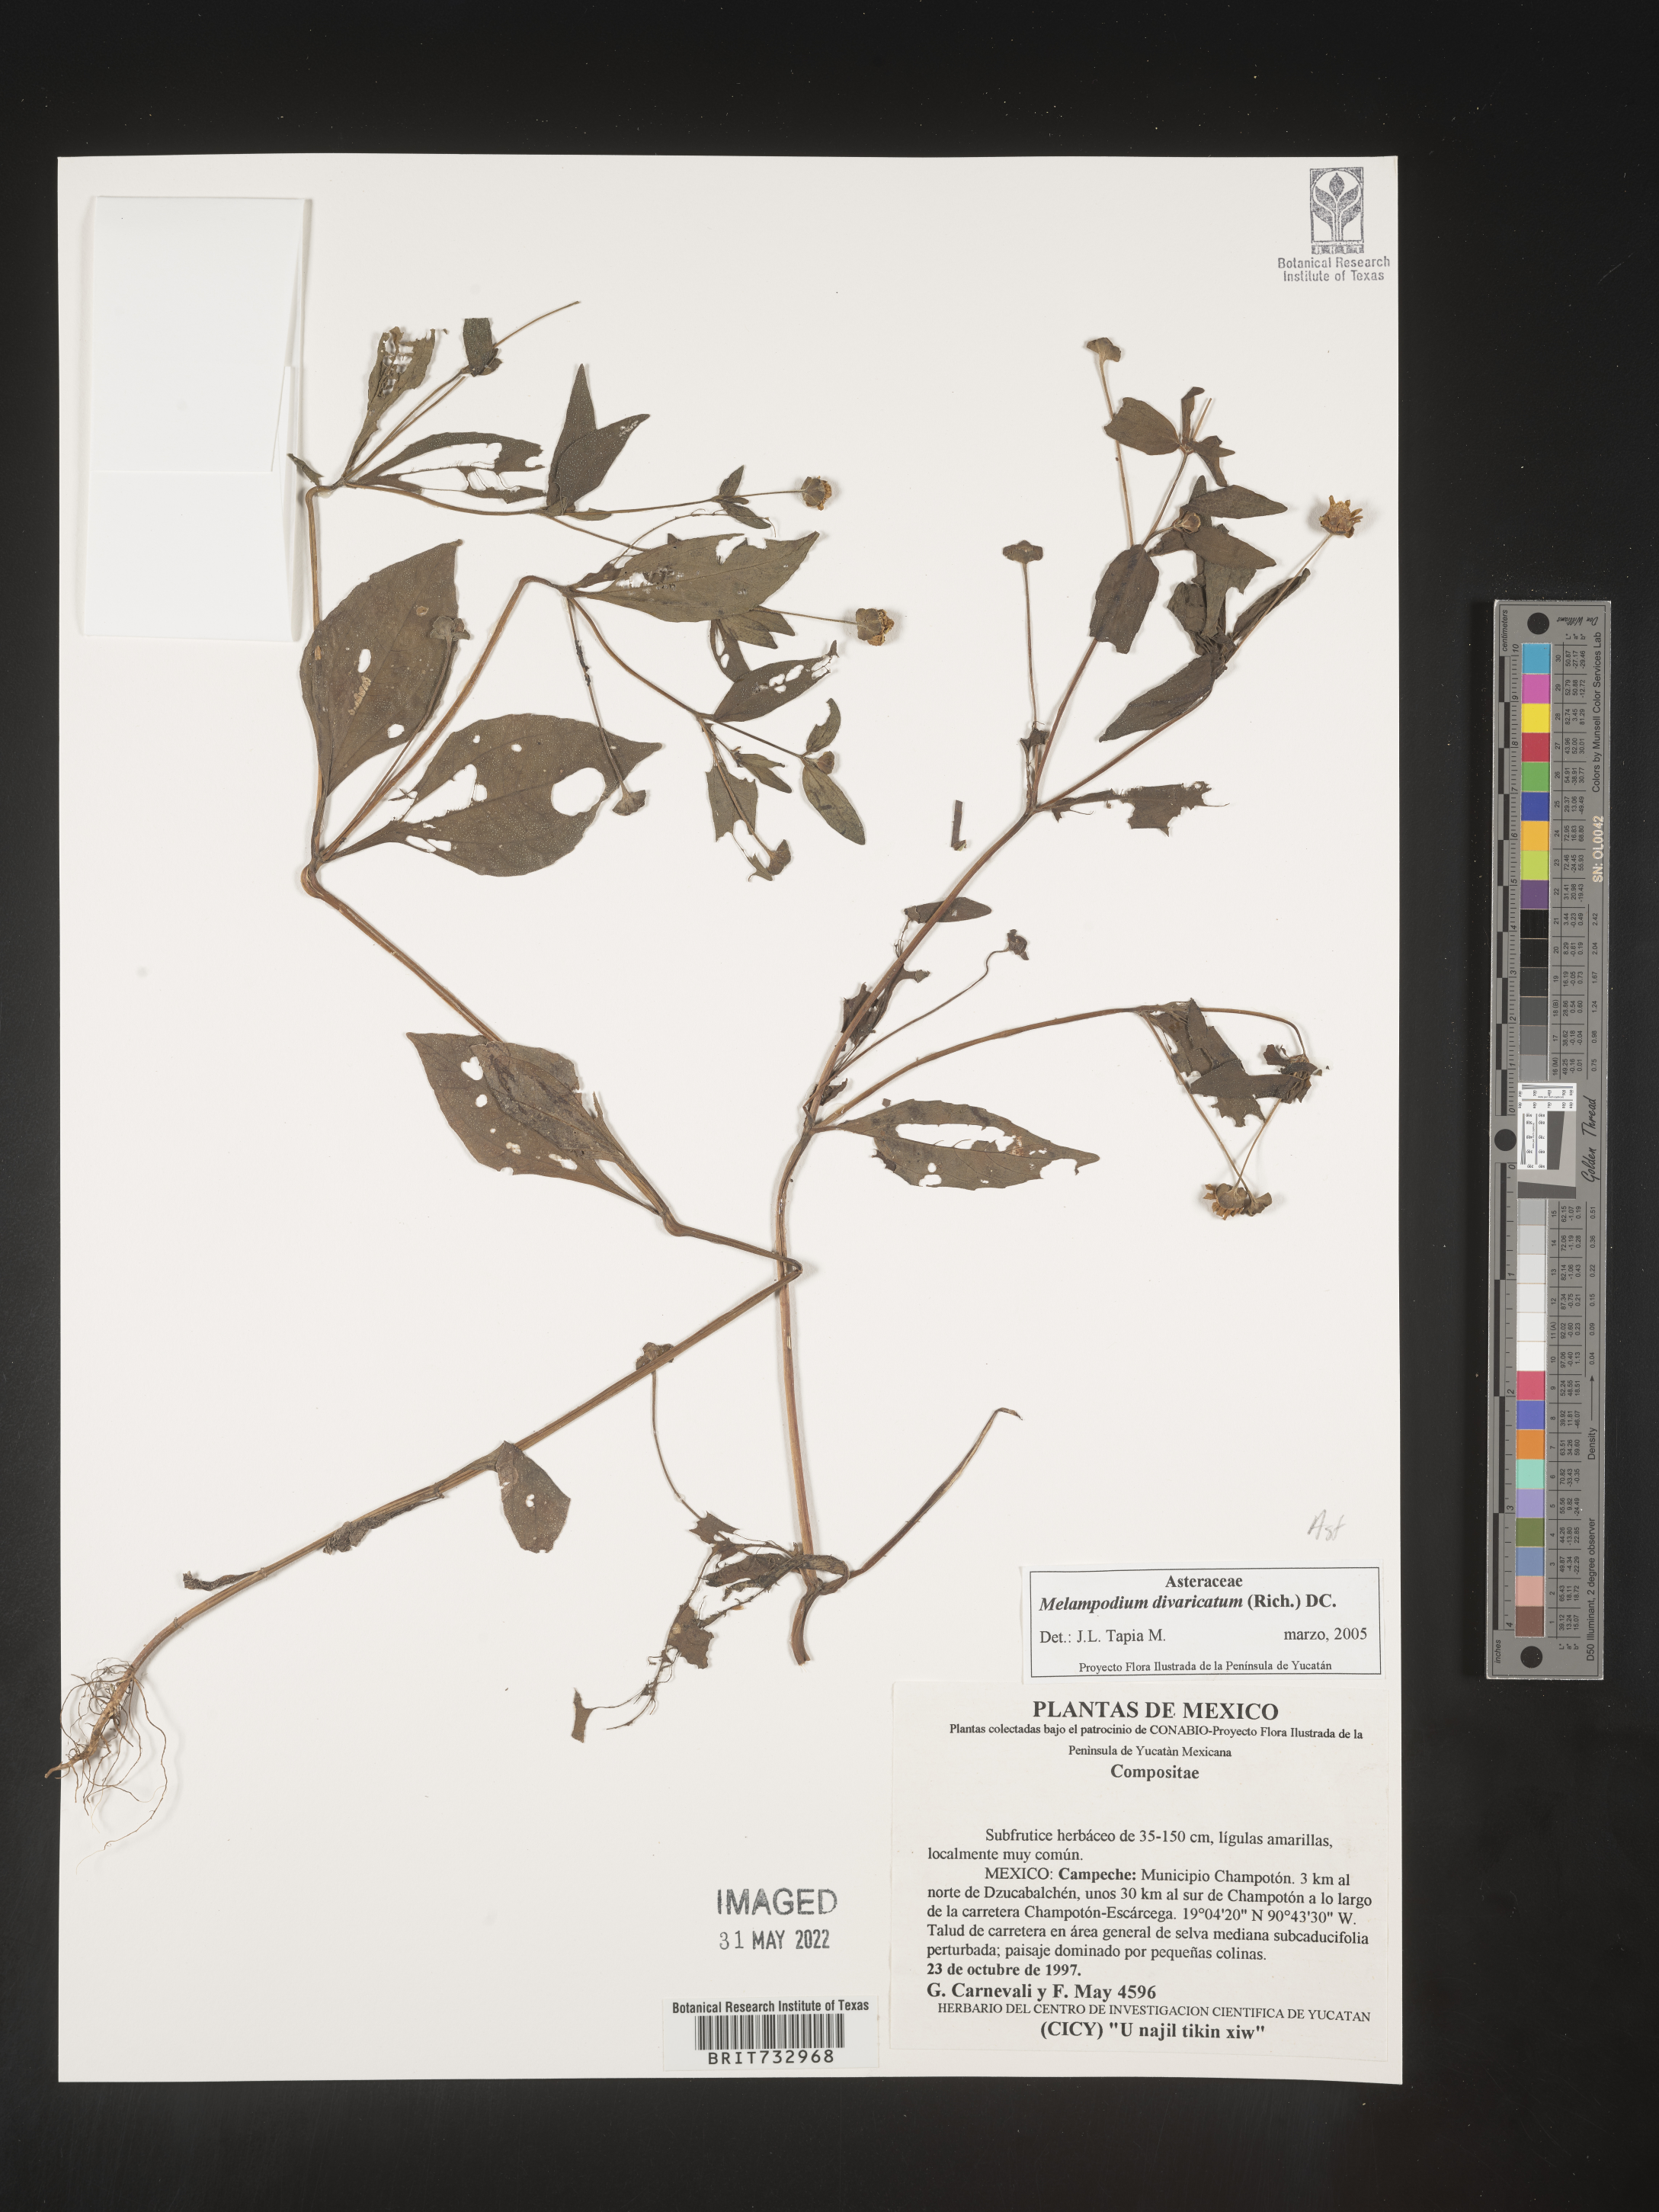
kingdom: Plantae
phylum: Tracheophyta
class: Magnoliopsida
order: Asterales
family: Asteraceae
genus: Melampodium
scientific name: Melampodium
